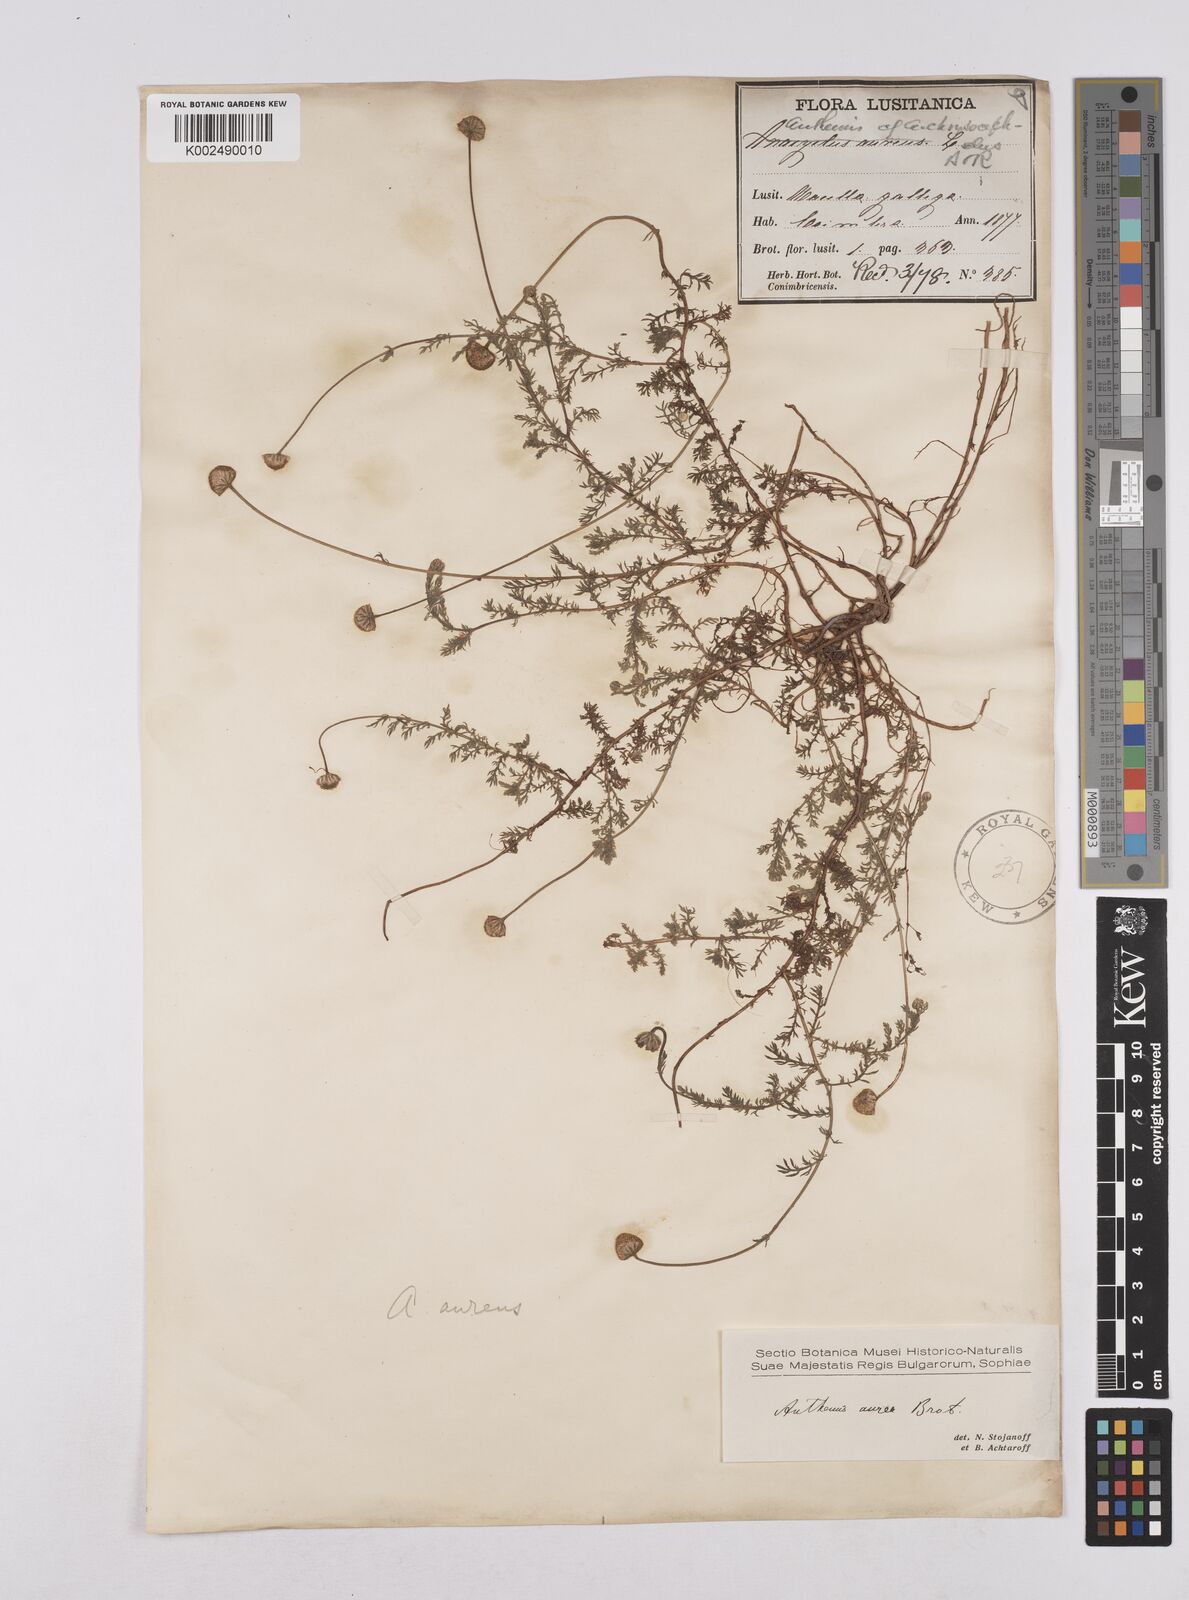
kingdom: Plantae
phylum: Tracheophyta
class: Magnoliopsida
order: Asterales
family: Asteraceae
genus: Matricaria
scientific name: Matricaria aurea
